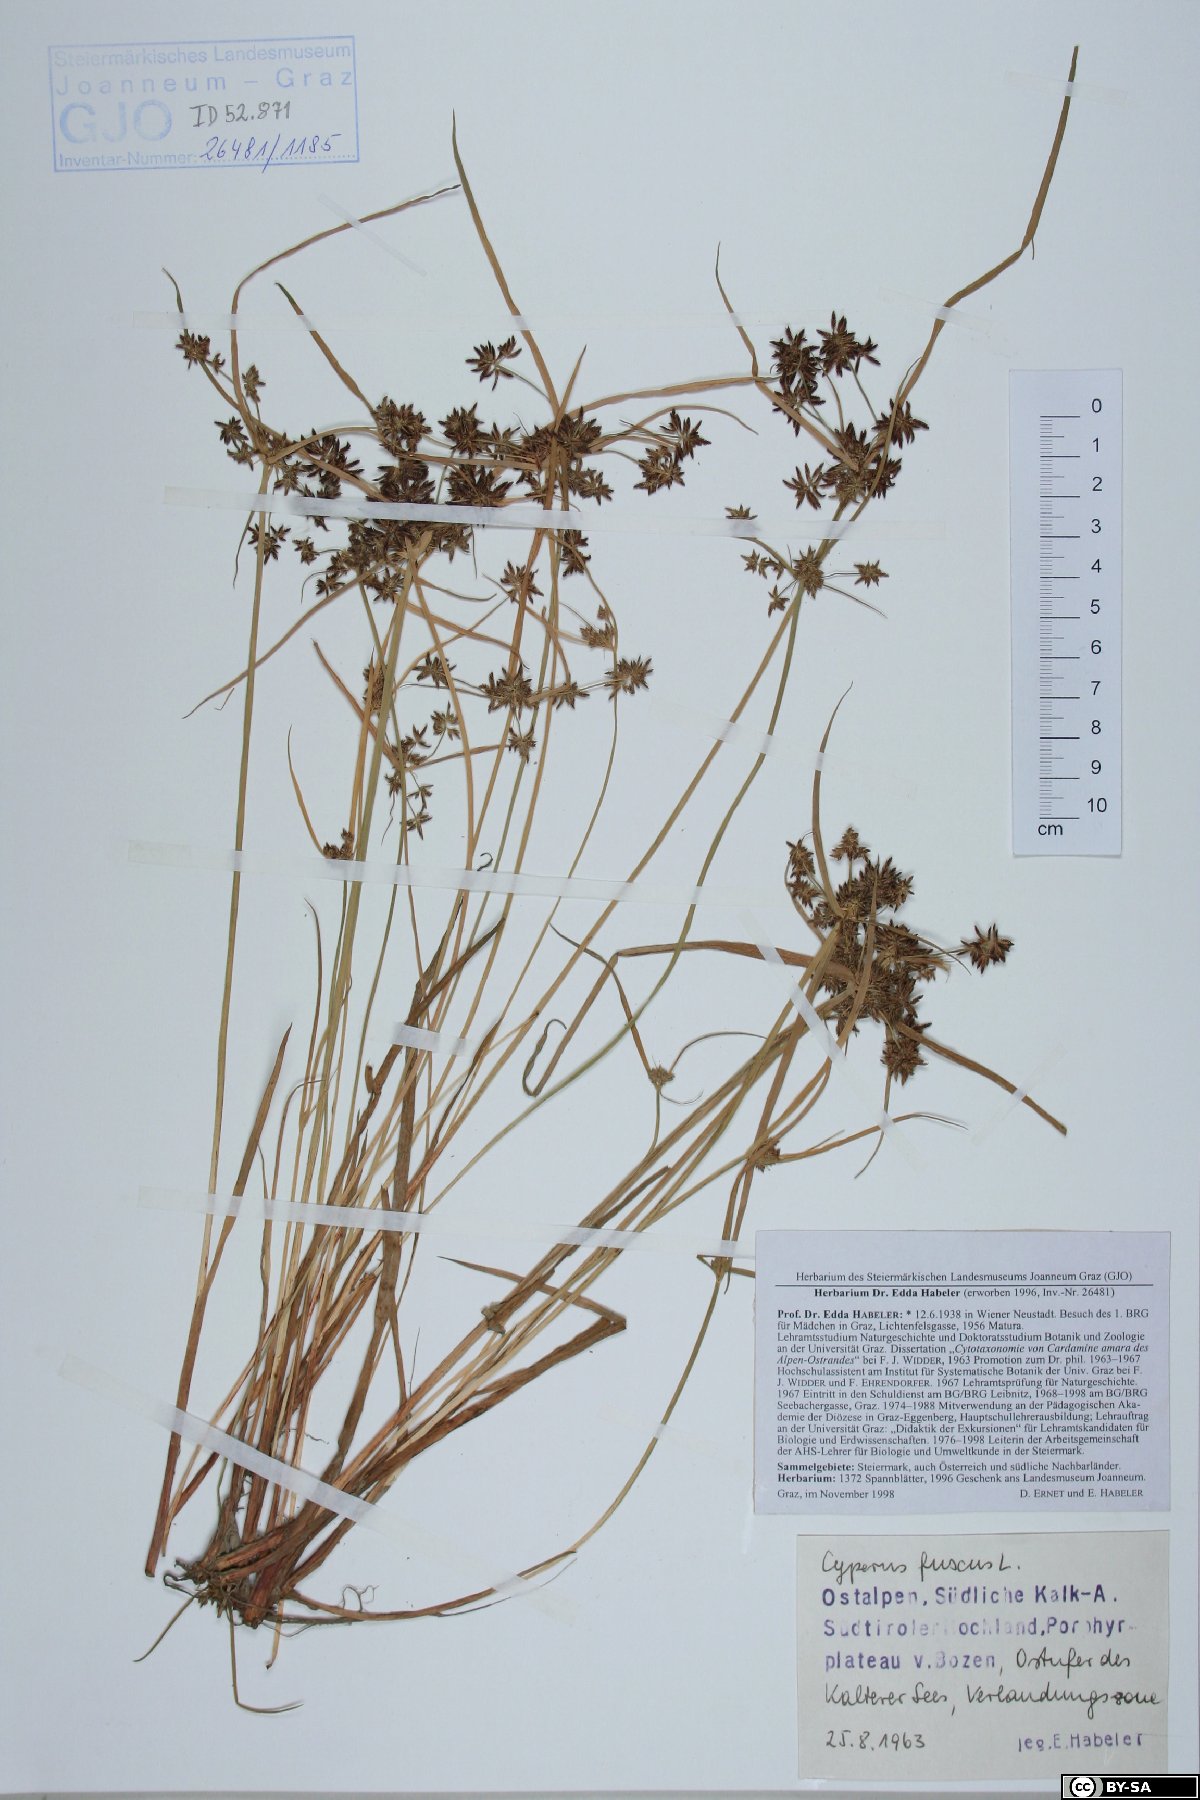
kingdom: Plantae
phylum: Tracheophyta
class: Liliopsida
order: Poales
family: Cyperaceae
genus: Cyperus
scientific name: Cyperus fuscus
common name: Brown galingale
